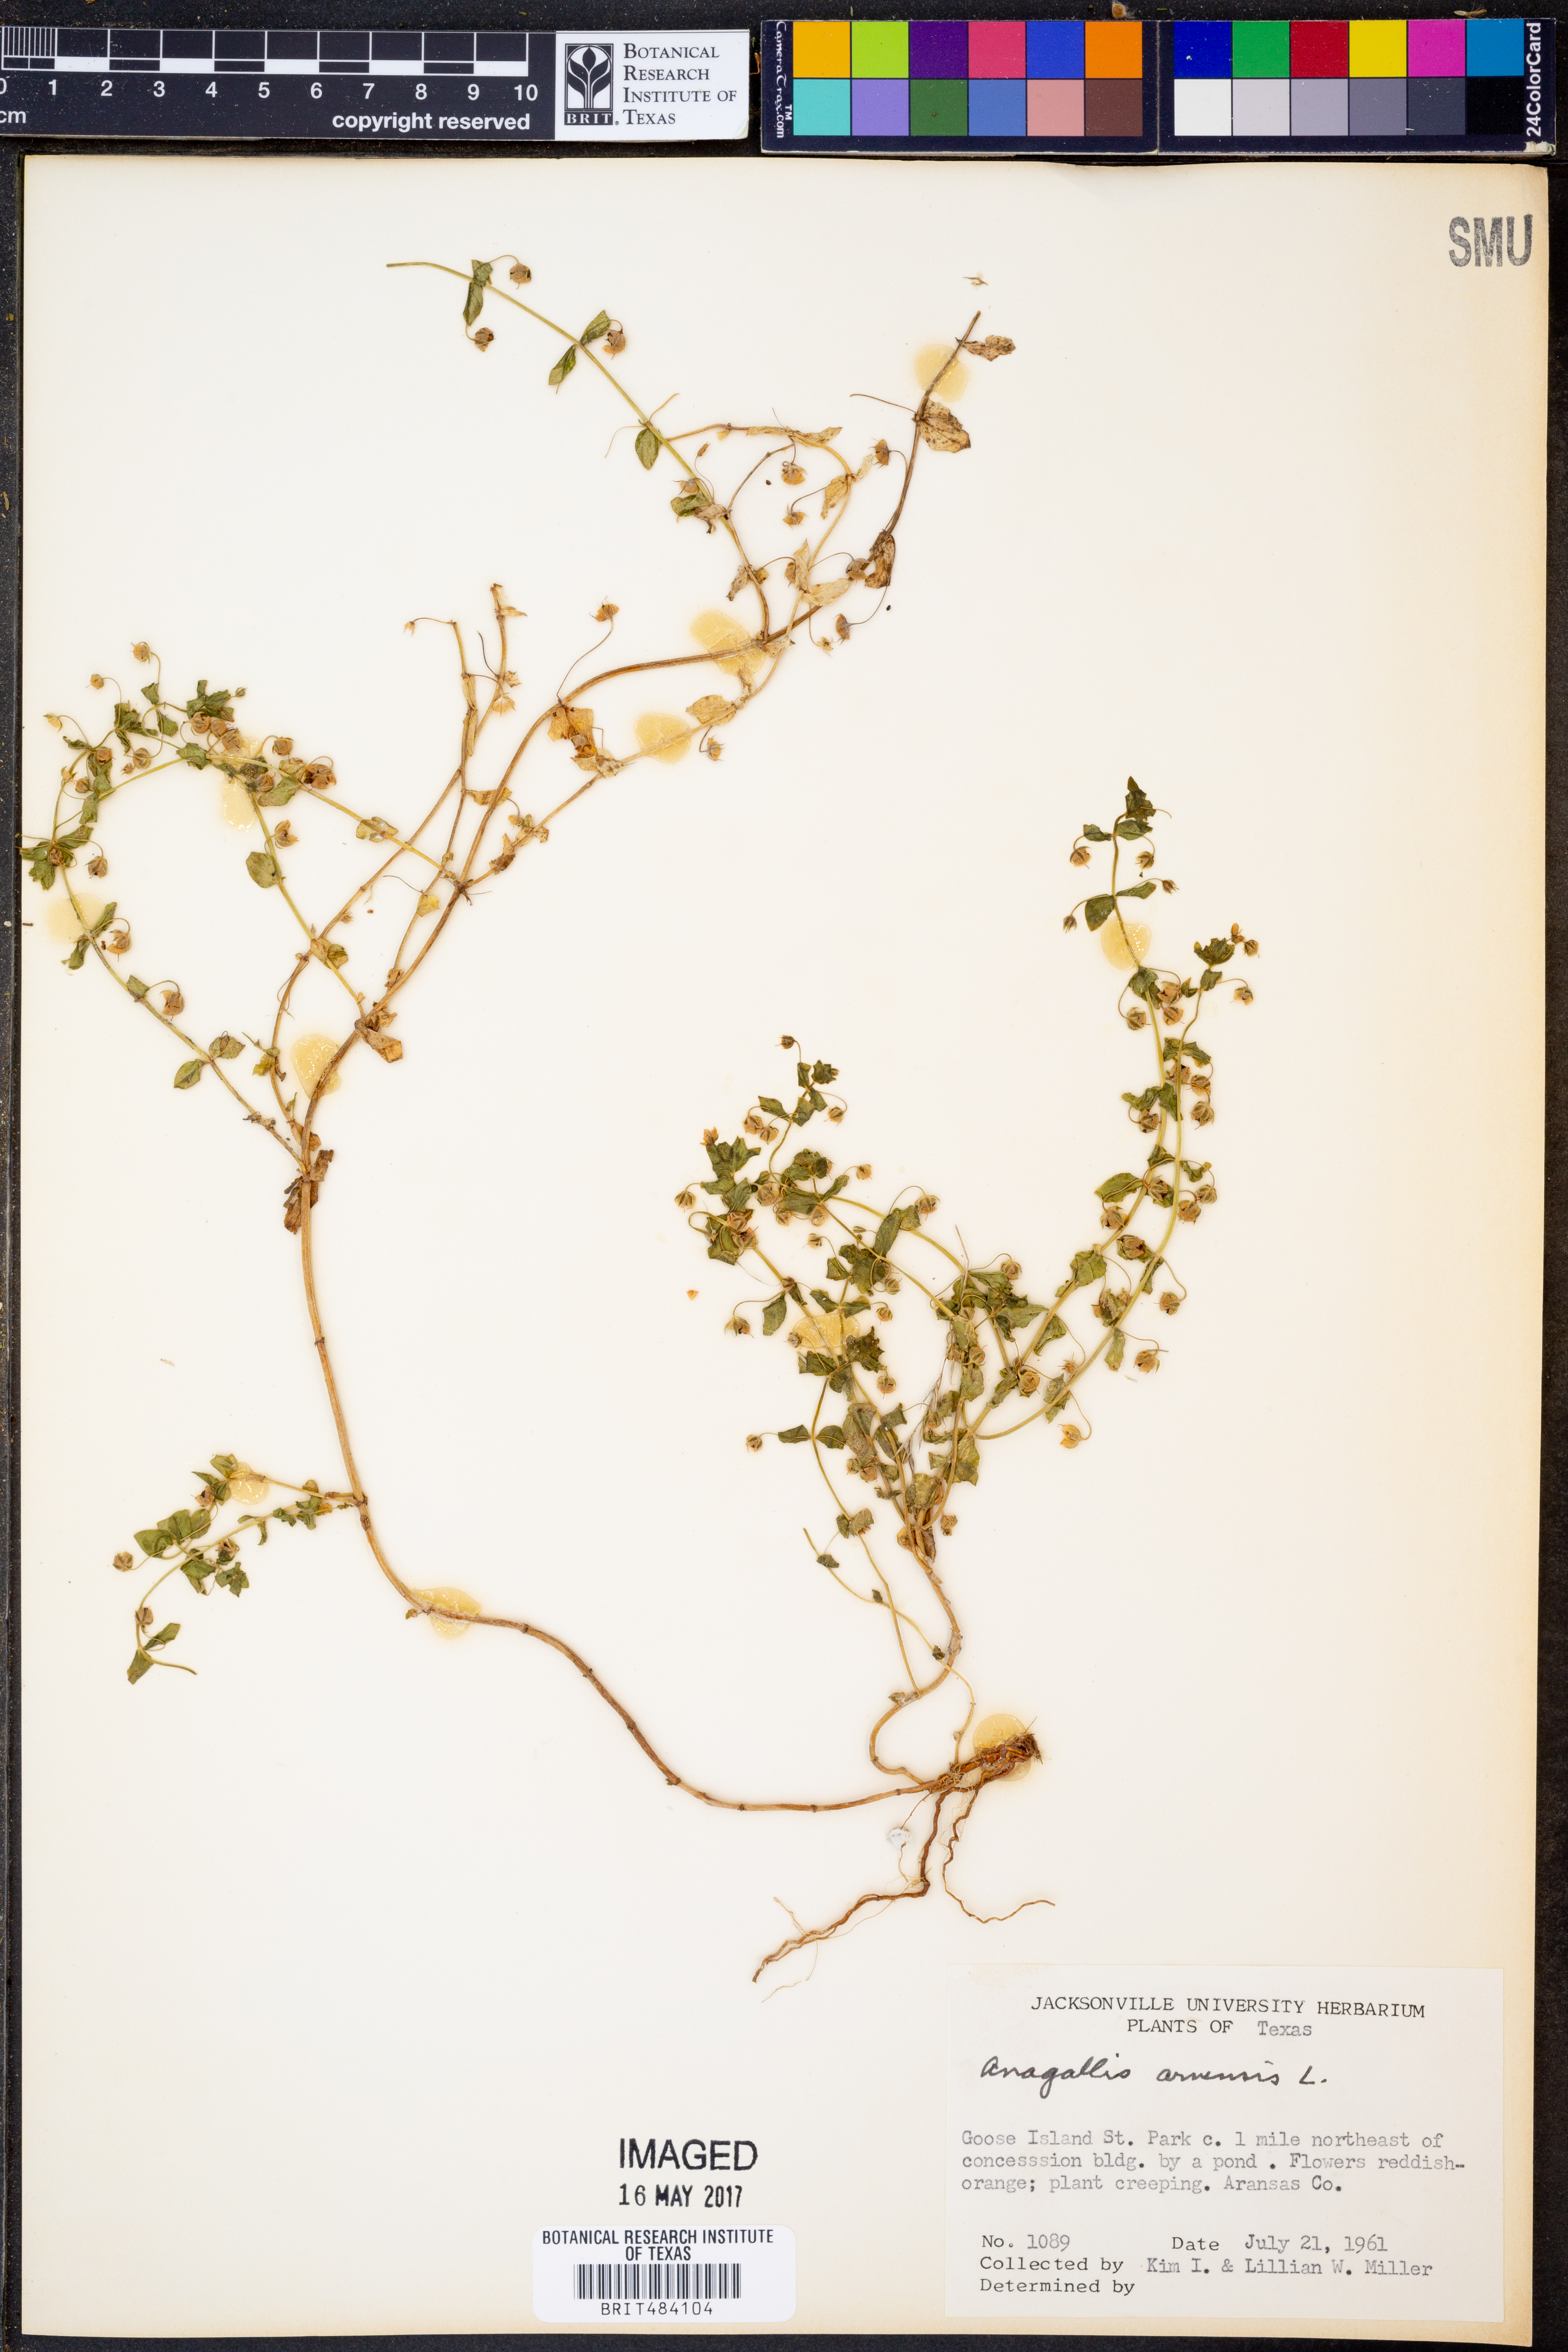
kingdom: Plantae
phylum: Tracheophyta
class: Magnoliopsida
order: Ericales
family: Primulaceae
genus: Lysimachia
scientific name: Lysimachia arvensis
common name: Scarlet pimpernel
